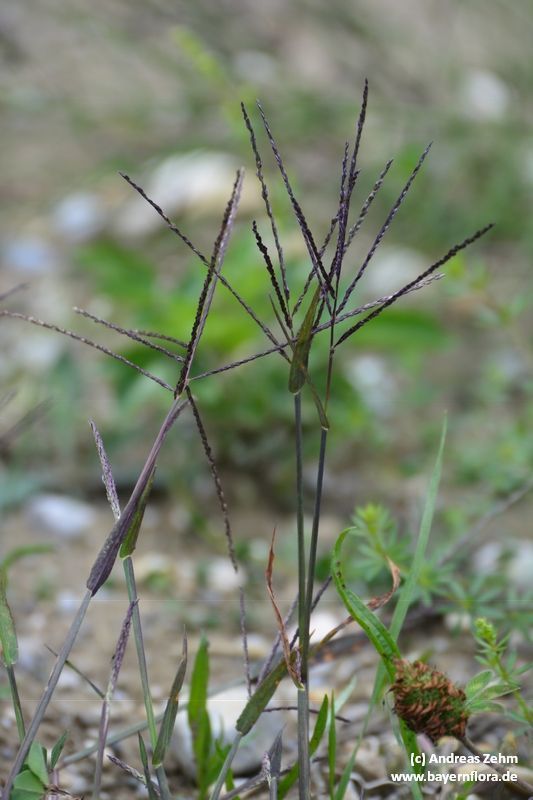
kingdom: Plantae
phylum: Tracheophyta
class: Liliopsida
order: Poales
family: Poaceae
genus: Digitaria
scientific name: Digitaria ischaemum
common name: Smooth crabgrass
